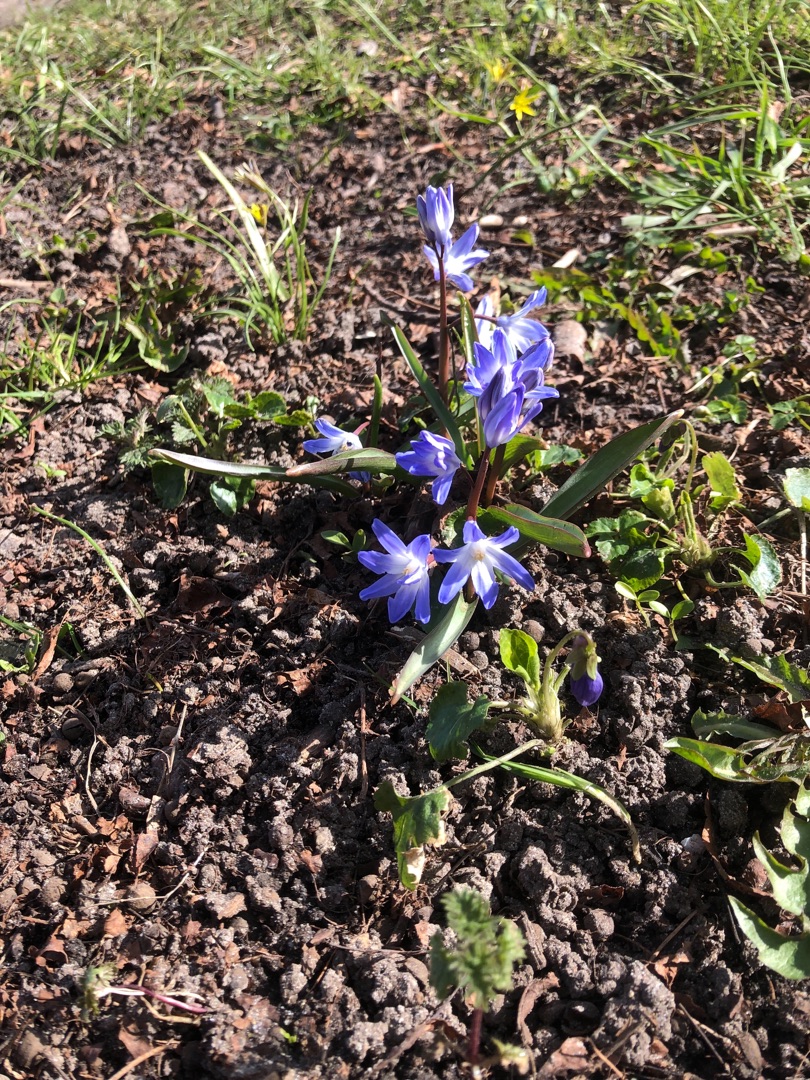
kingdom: Plantae
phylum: Tracheophyta
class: Liliopsida
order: Asparagales
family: Asparagaceae
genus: Scilla
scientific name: Scilla forbesii
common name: Almindelig snepryd
